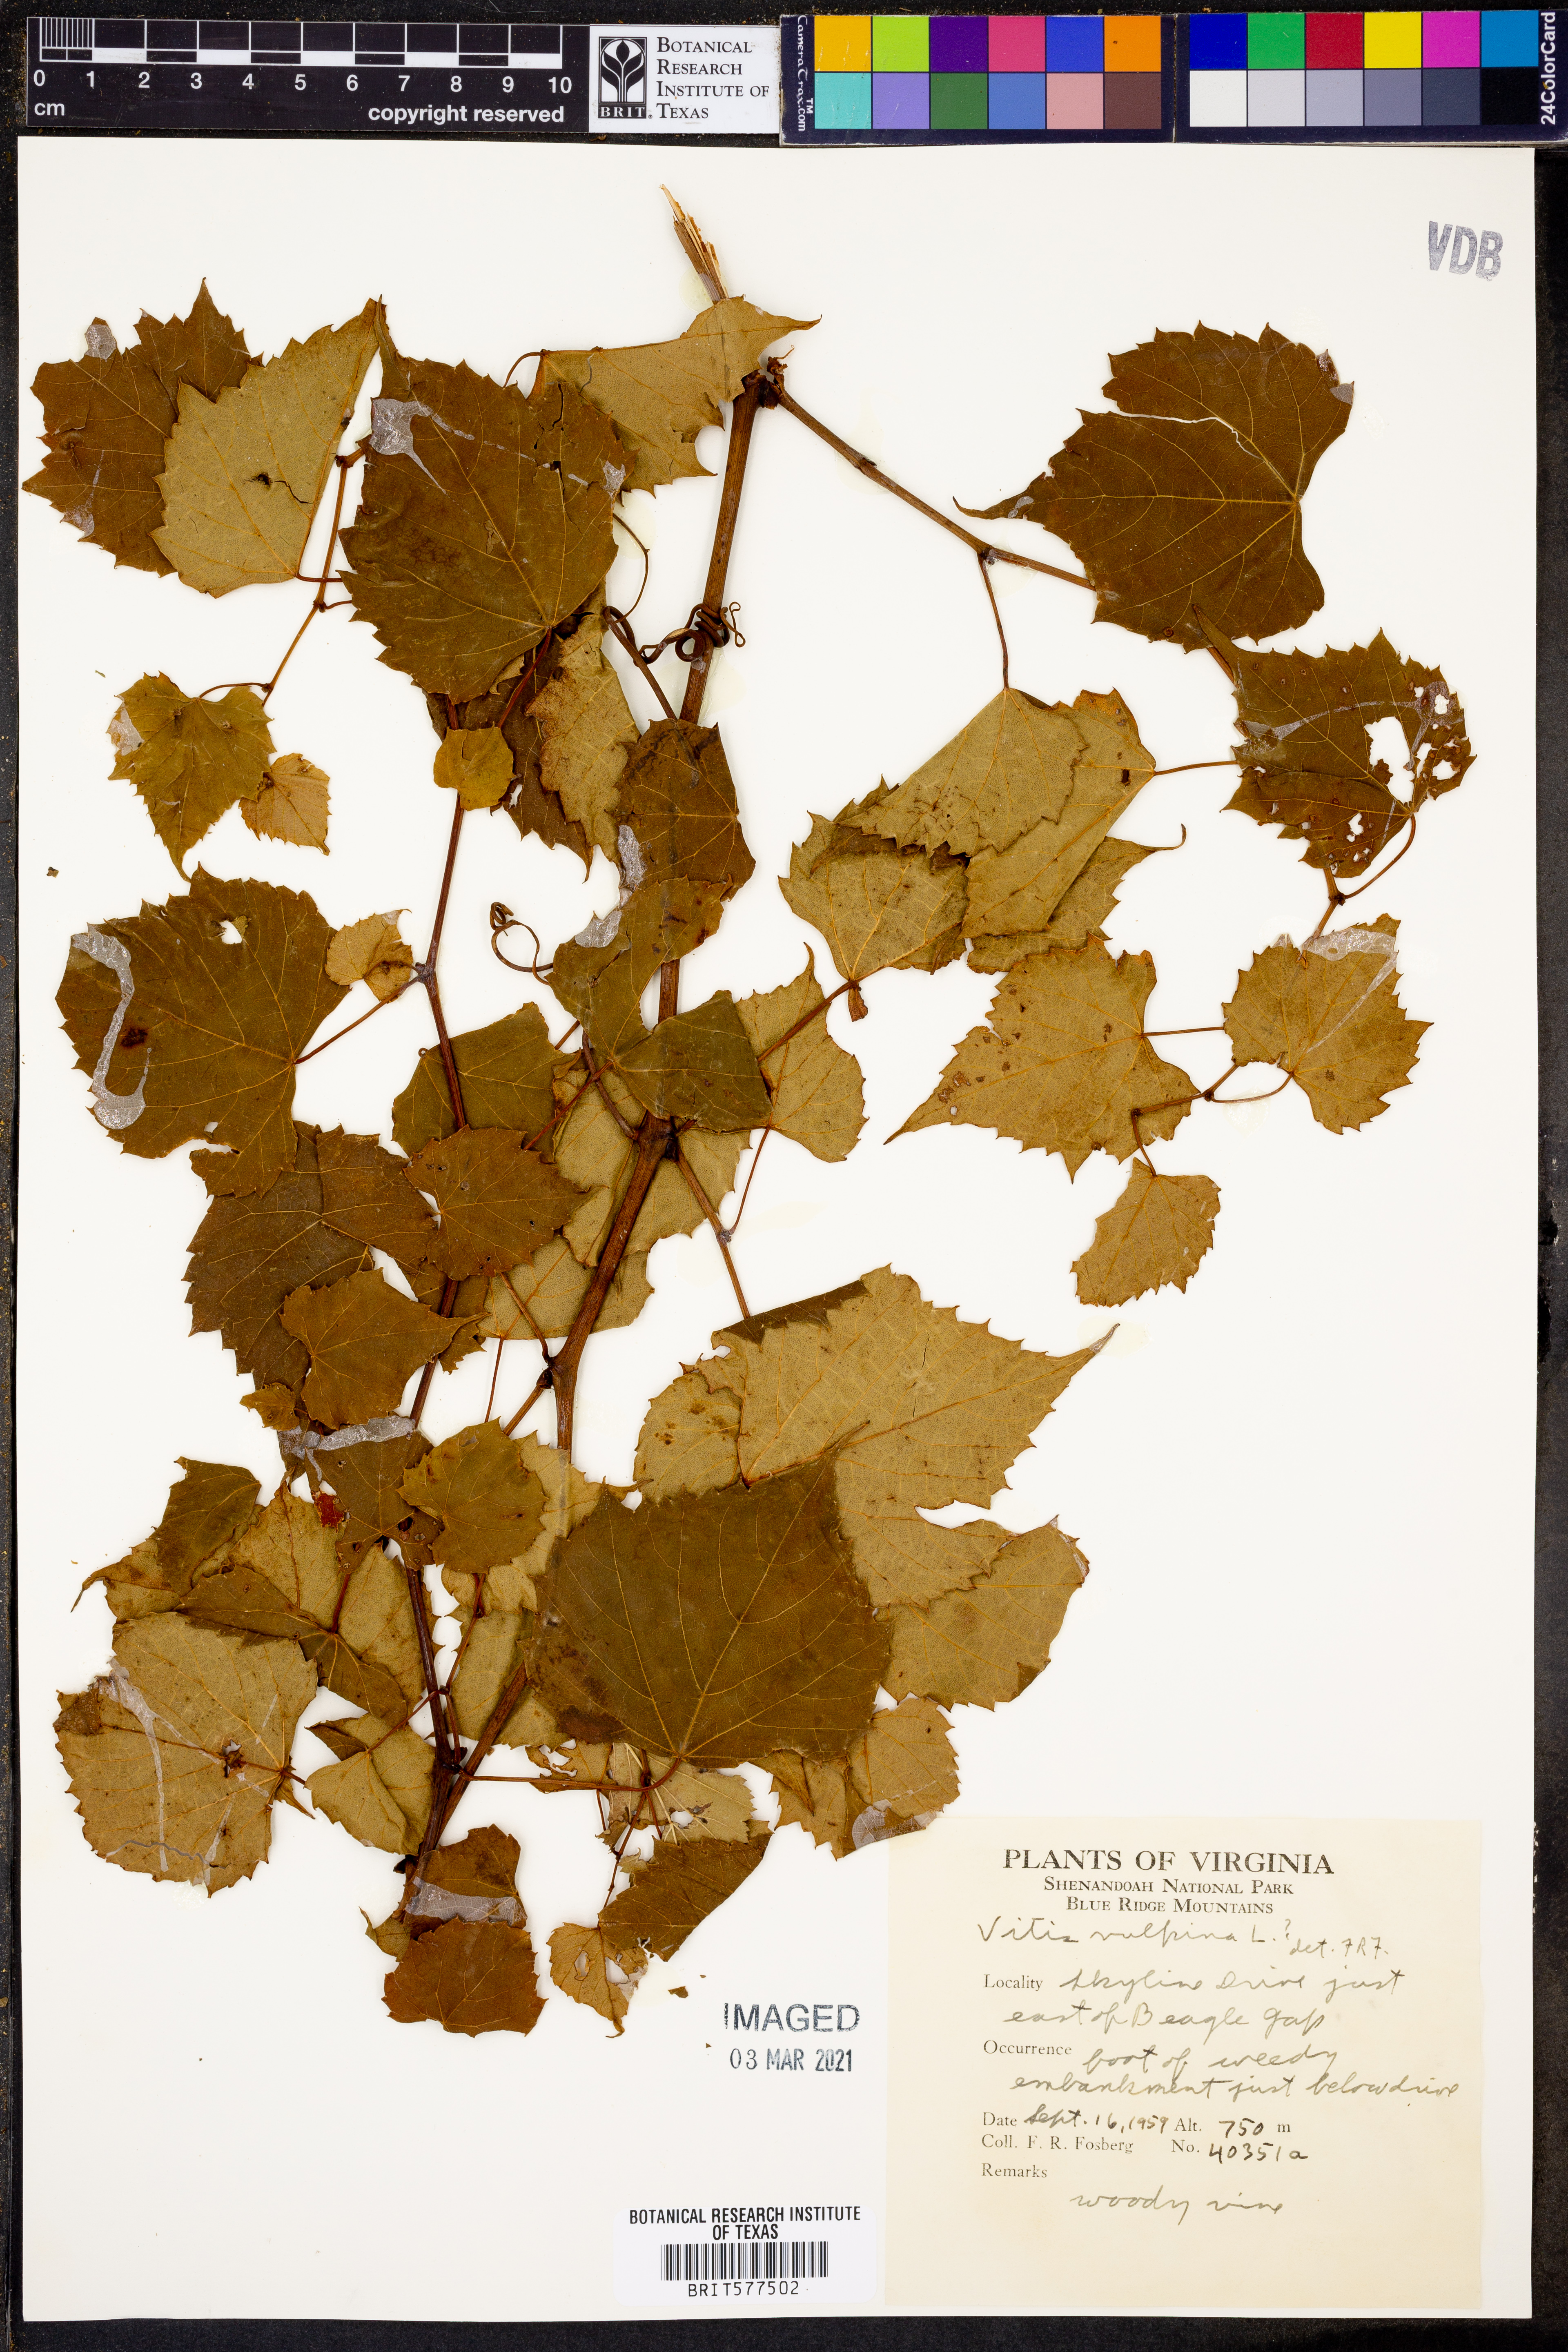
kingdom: Plantae
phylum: Tracheophyta
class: Magnoliopsida
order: Vitales
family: Vitaceae
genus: Vitis
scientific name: Vitis vulpina
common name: Frost grape
